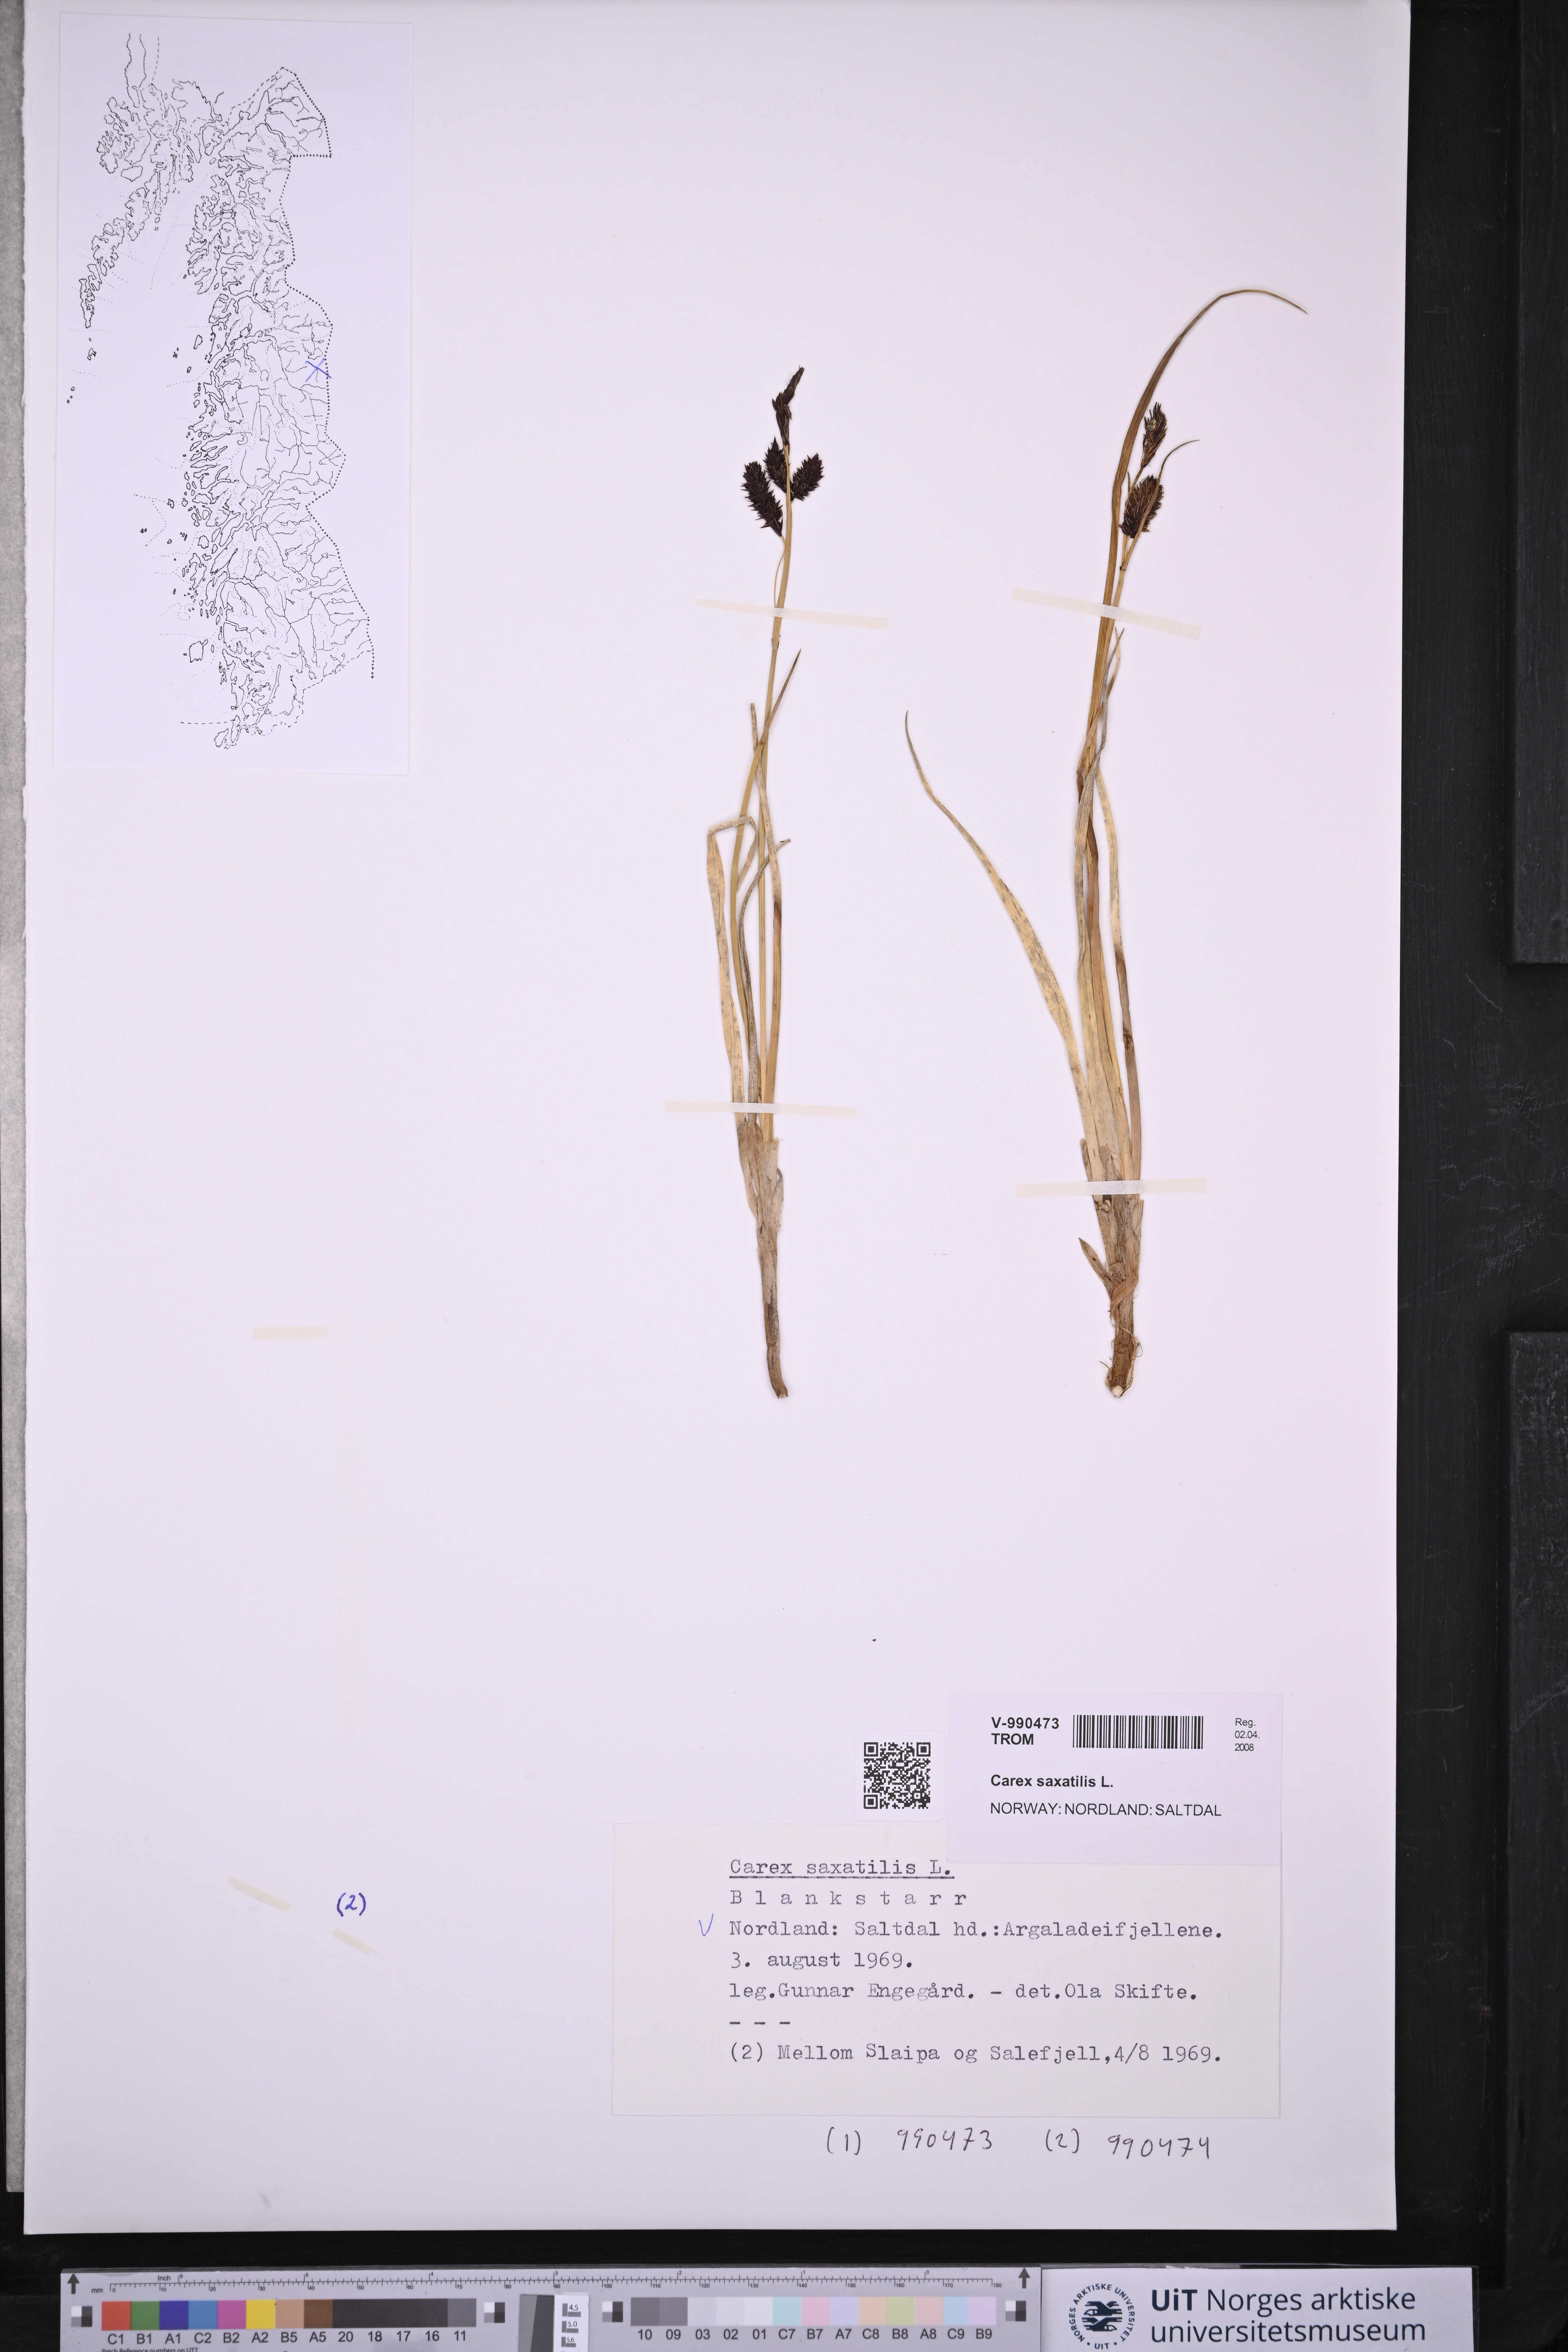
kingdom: Plantae
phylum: Tracheophyta
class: Liliopsida
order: Poales
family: Cyperaceae
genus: Carex
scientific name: Carex saxatilis
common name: Russet sedge
